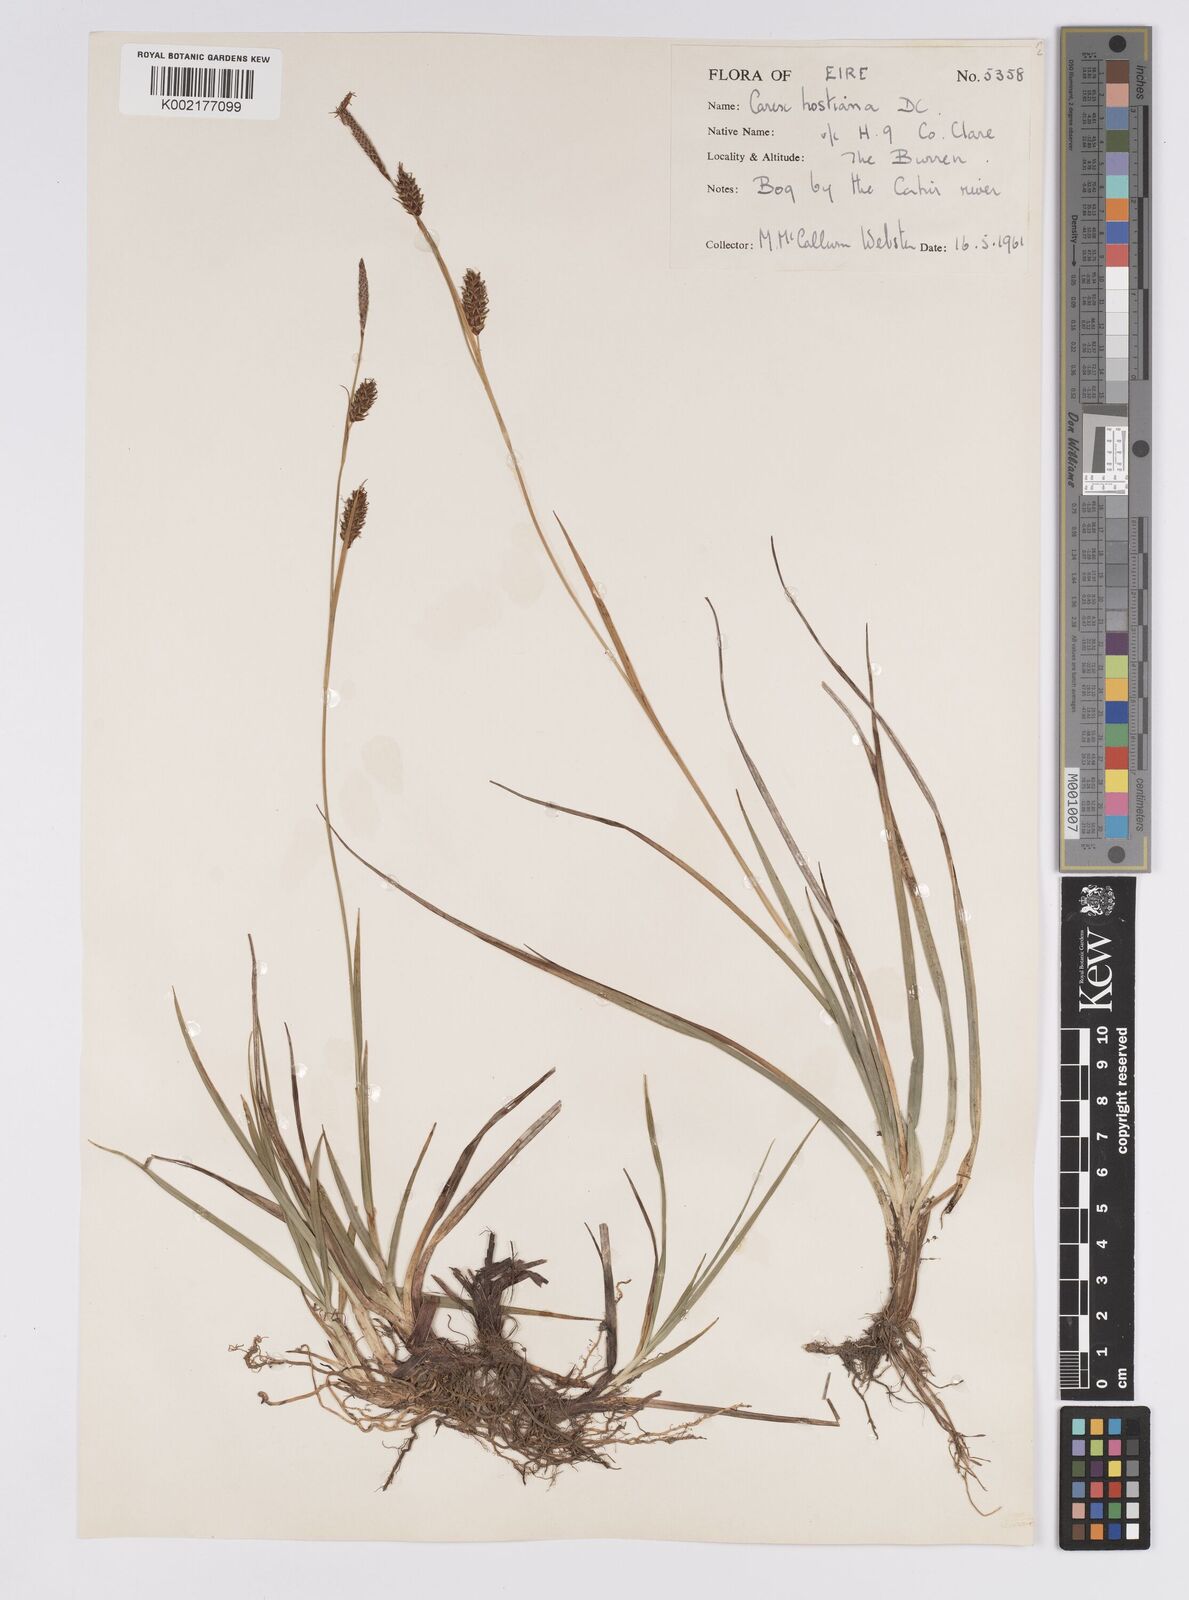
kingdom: Plantae
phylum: Tracheophyta
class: Liliopsida
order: Poales
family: Cyperaceae
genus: Carex
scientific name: Carex hostiana
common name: Tawny sedge
